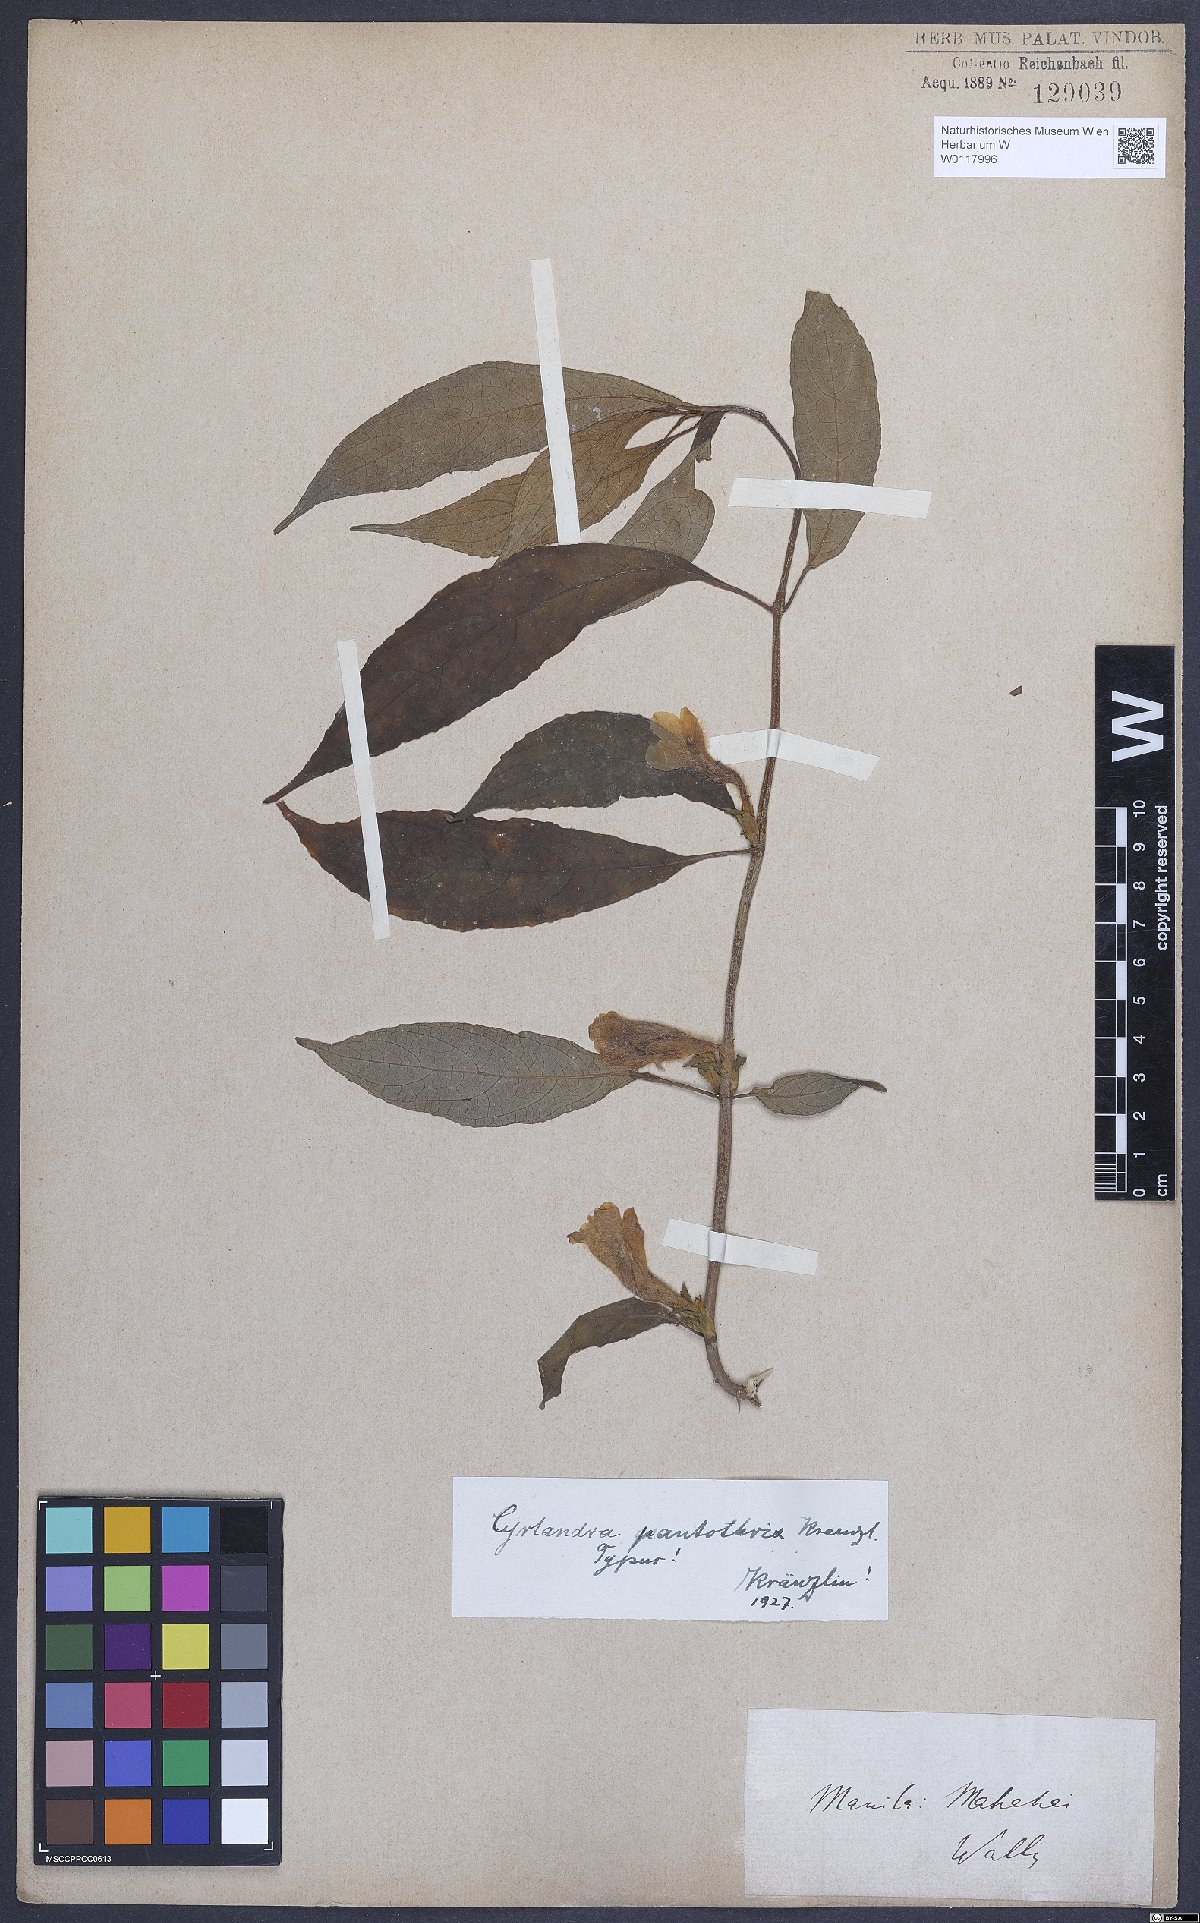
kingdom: Plantae
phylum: Tracheophyta
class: Magnoliopsida
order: Lamiales
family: Gesneriaceae
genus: Cyrtandra
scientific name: Cyrtandra pantothrix
